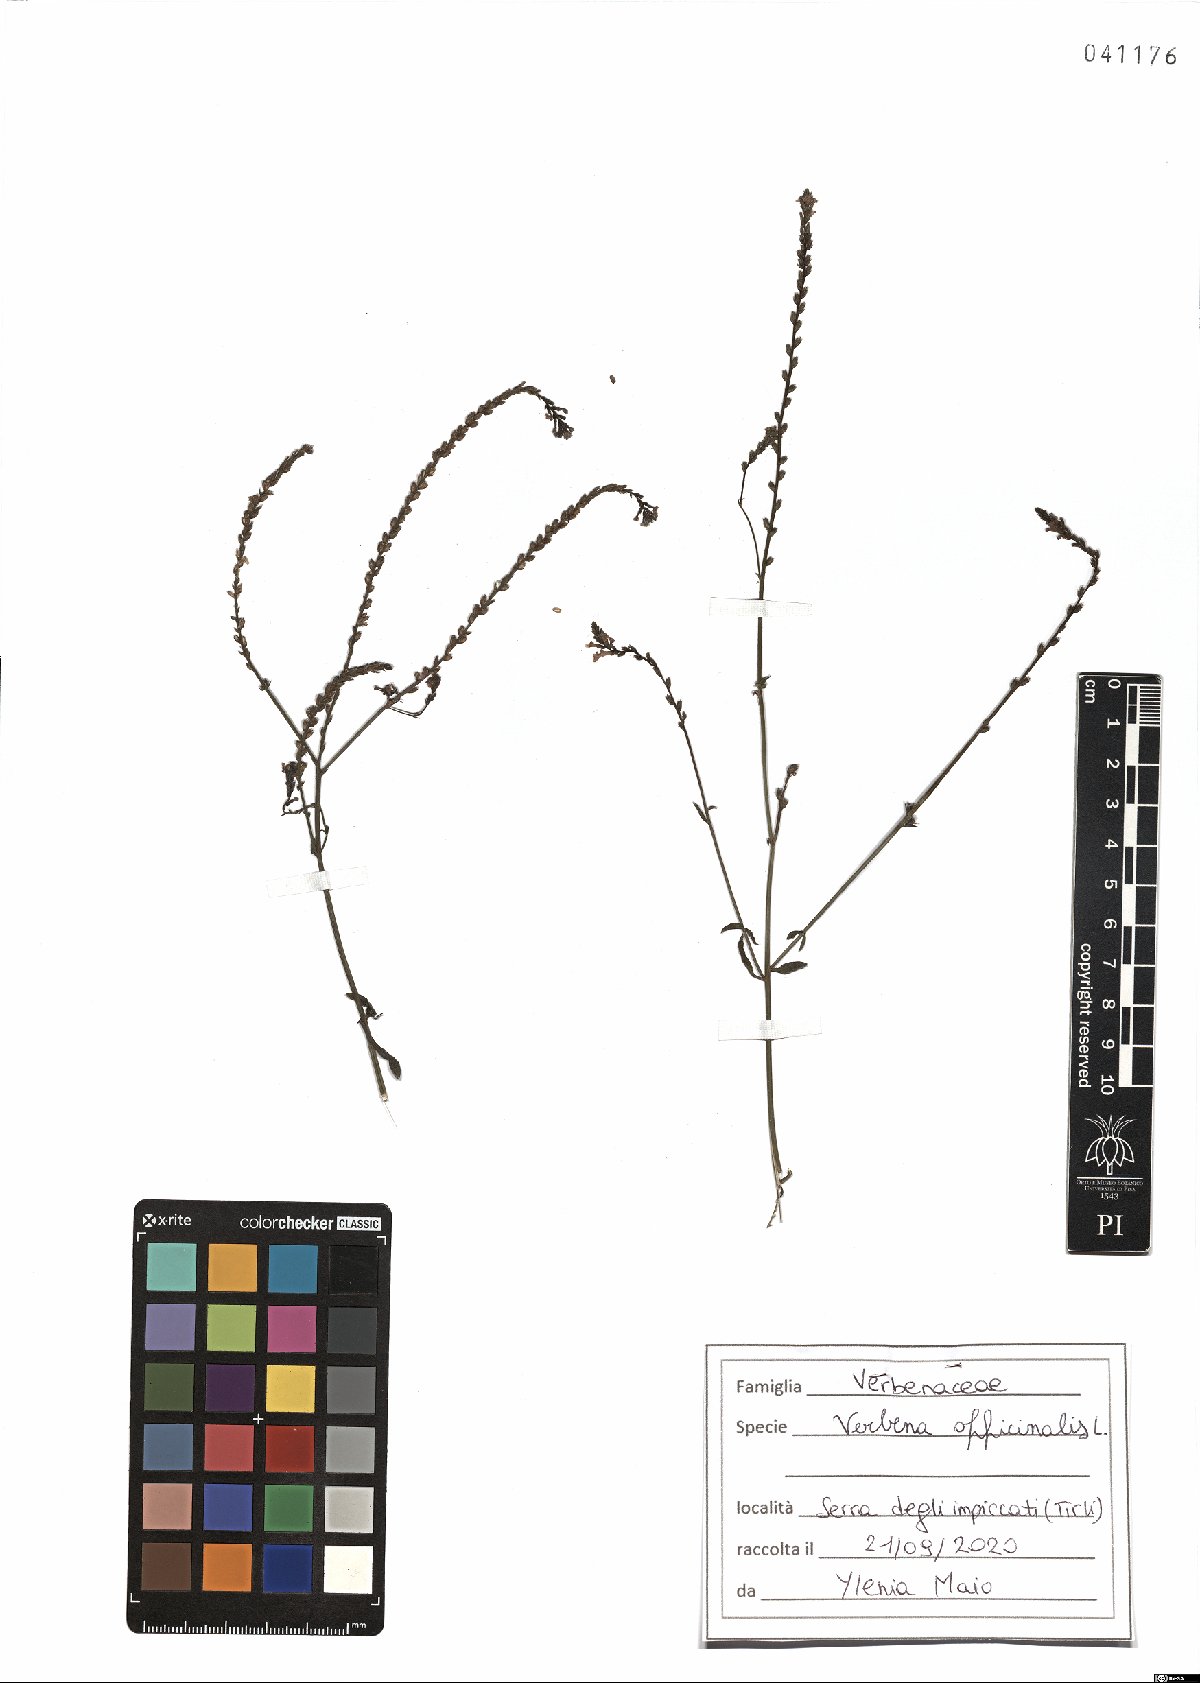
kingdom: Plantae
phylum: Tracheophyta
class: Magnoliopsida
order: Lamiales
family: Verbenaceae
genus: Verbena
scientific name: Verbena officinalis
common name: Vervain
